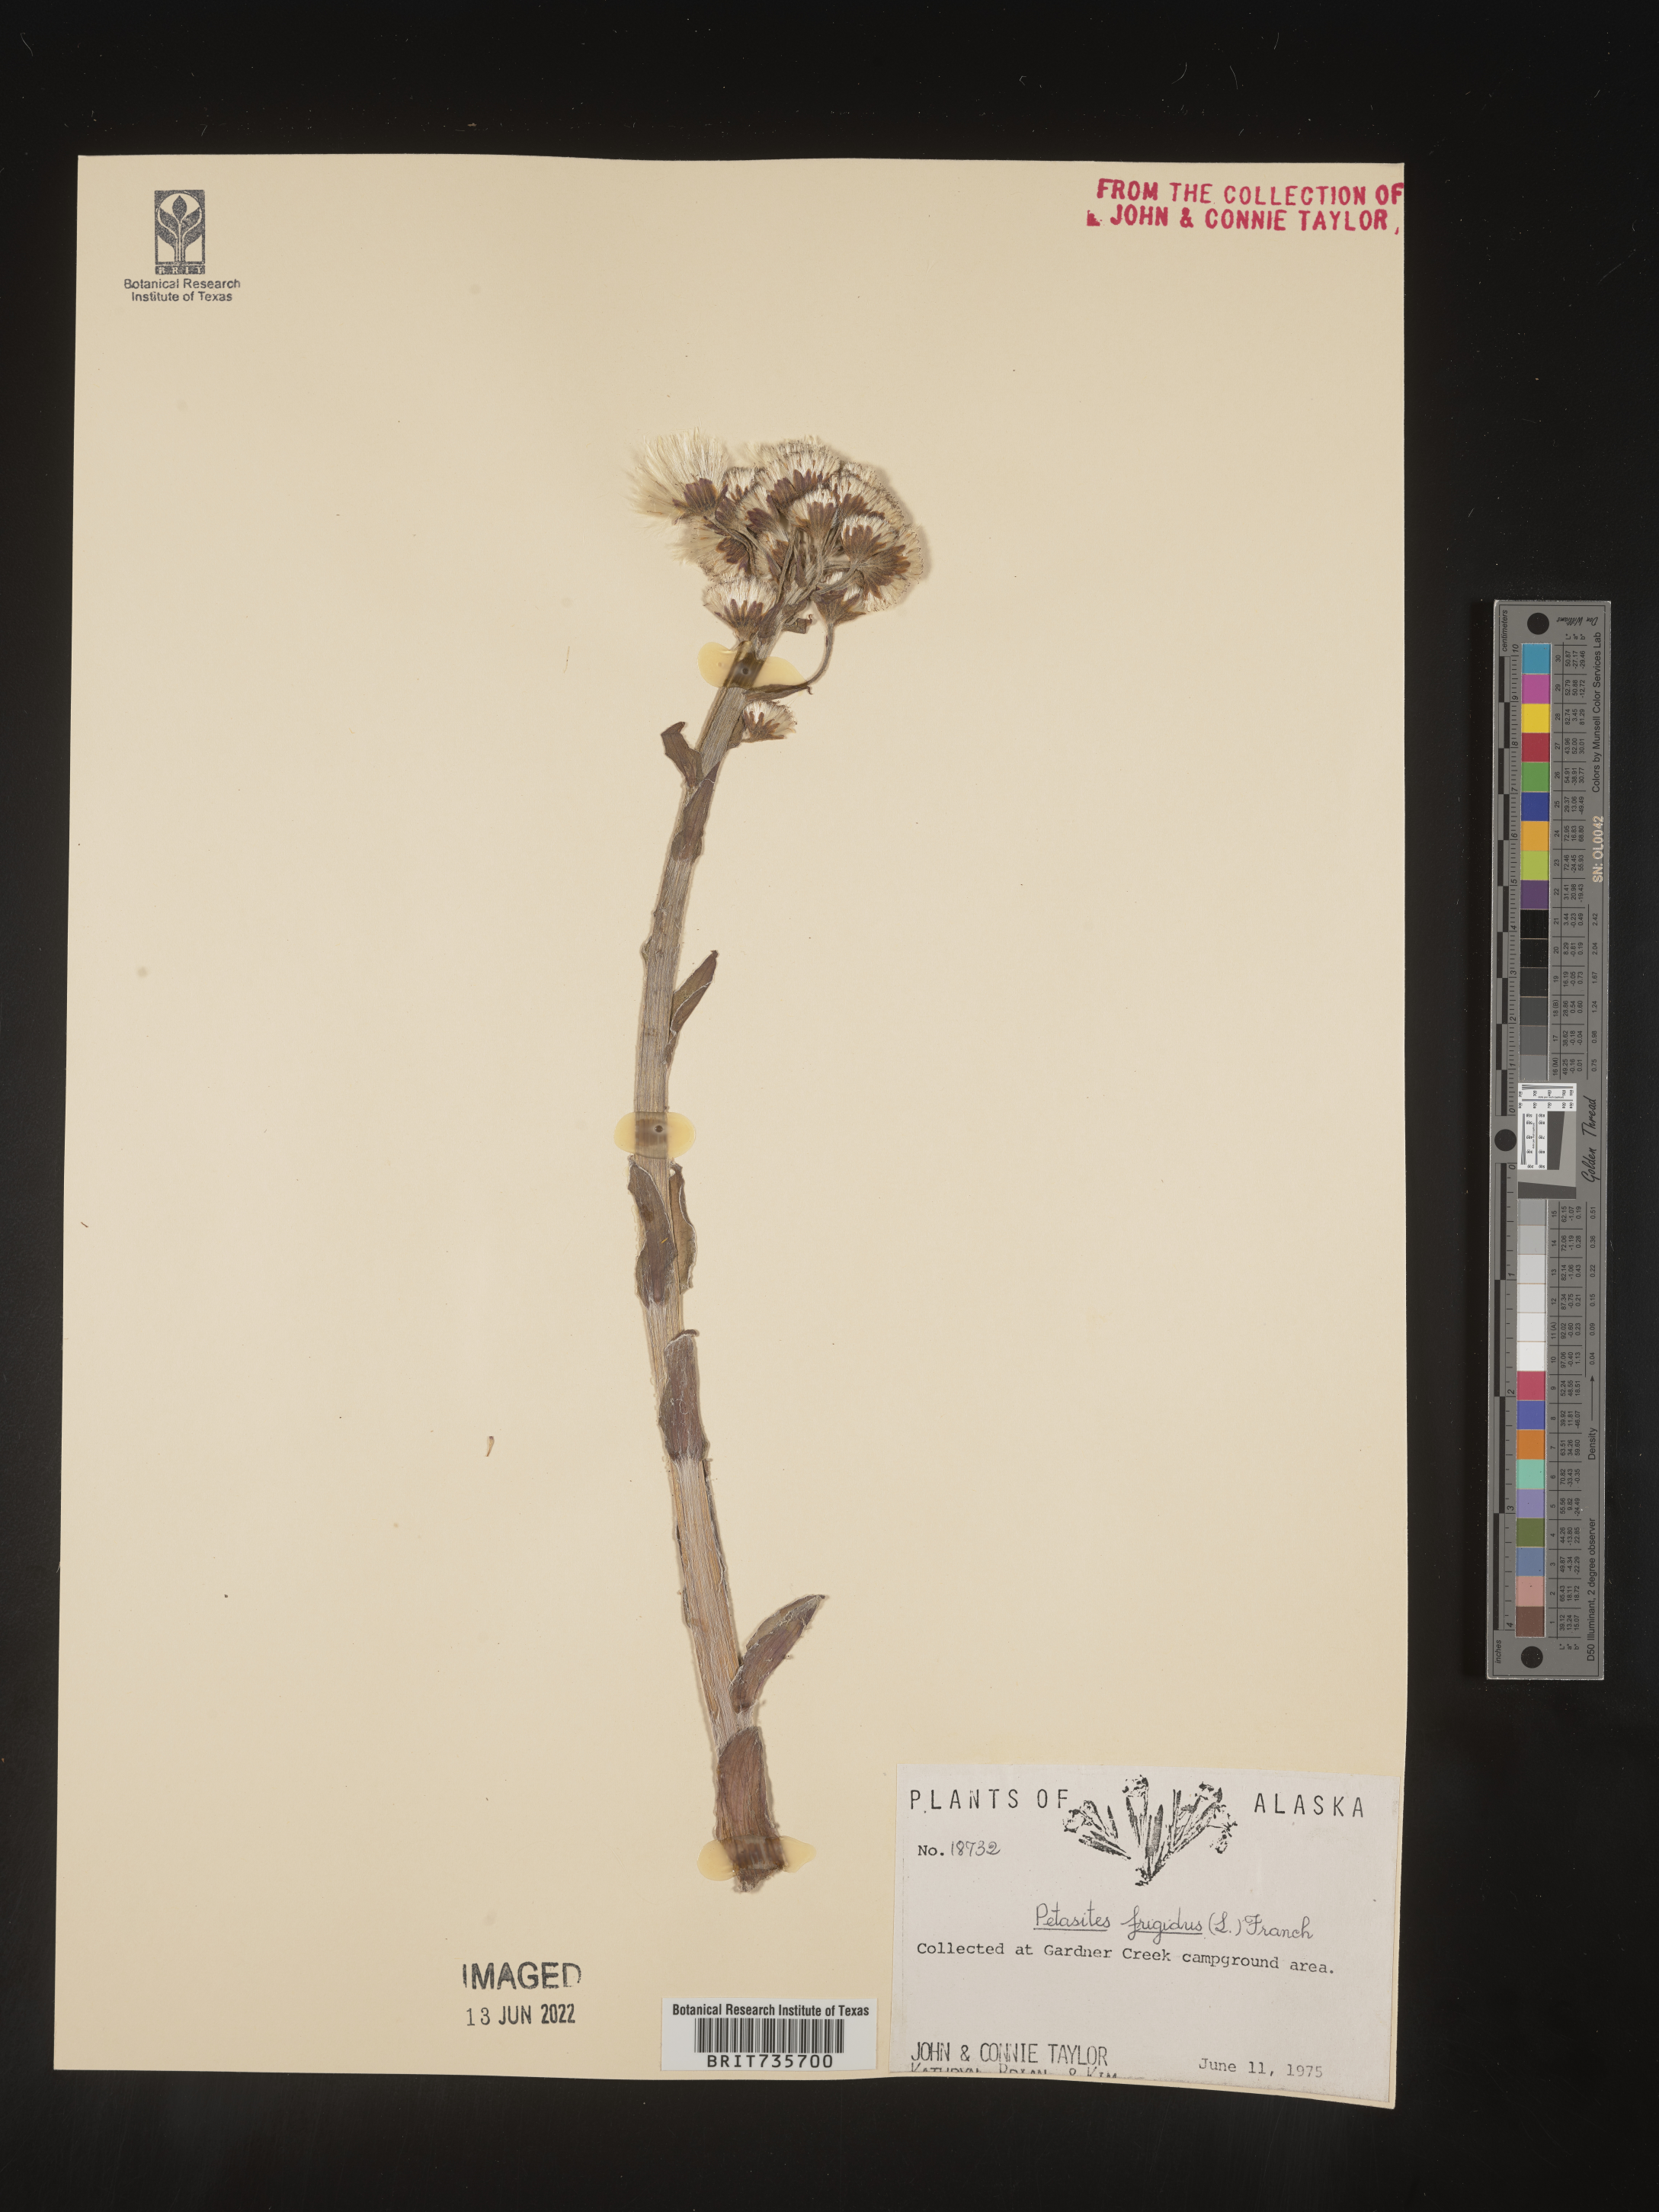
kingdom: Plantae
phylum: Tracheophyta
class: Magnoliopsida
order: Asterales
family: Asteraceae
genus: Petasites
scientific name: Petasites frigidus
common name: Arctic butterbur
